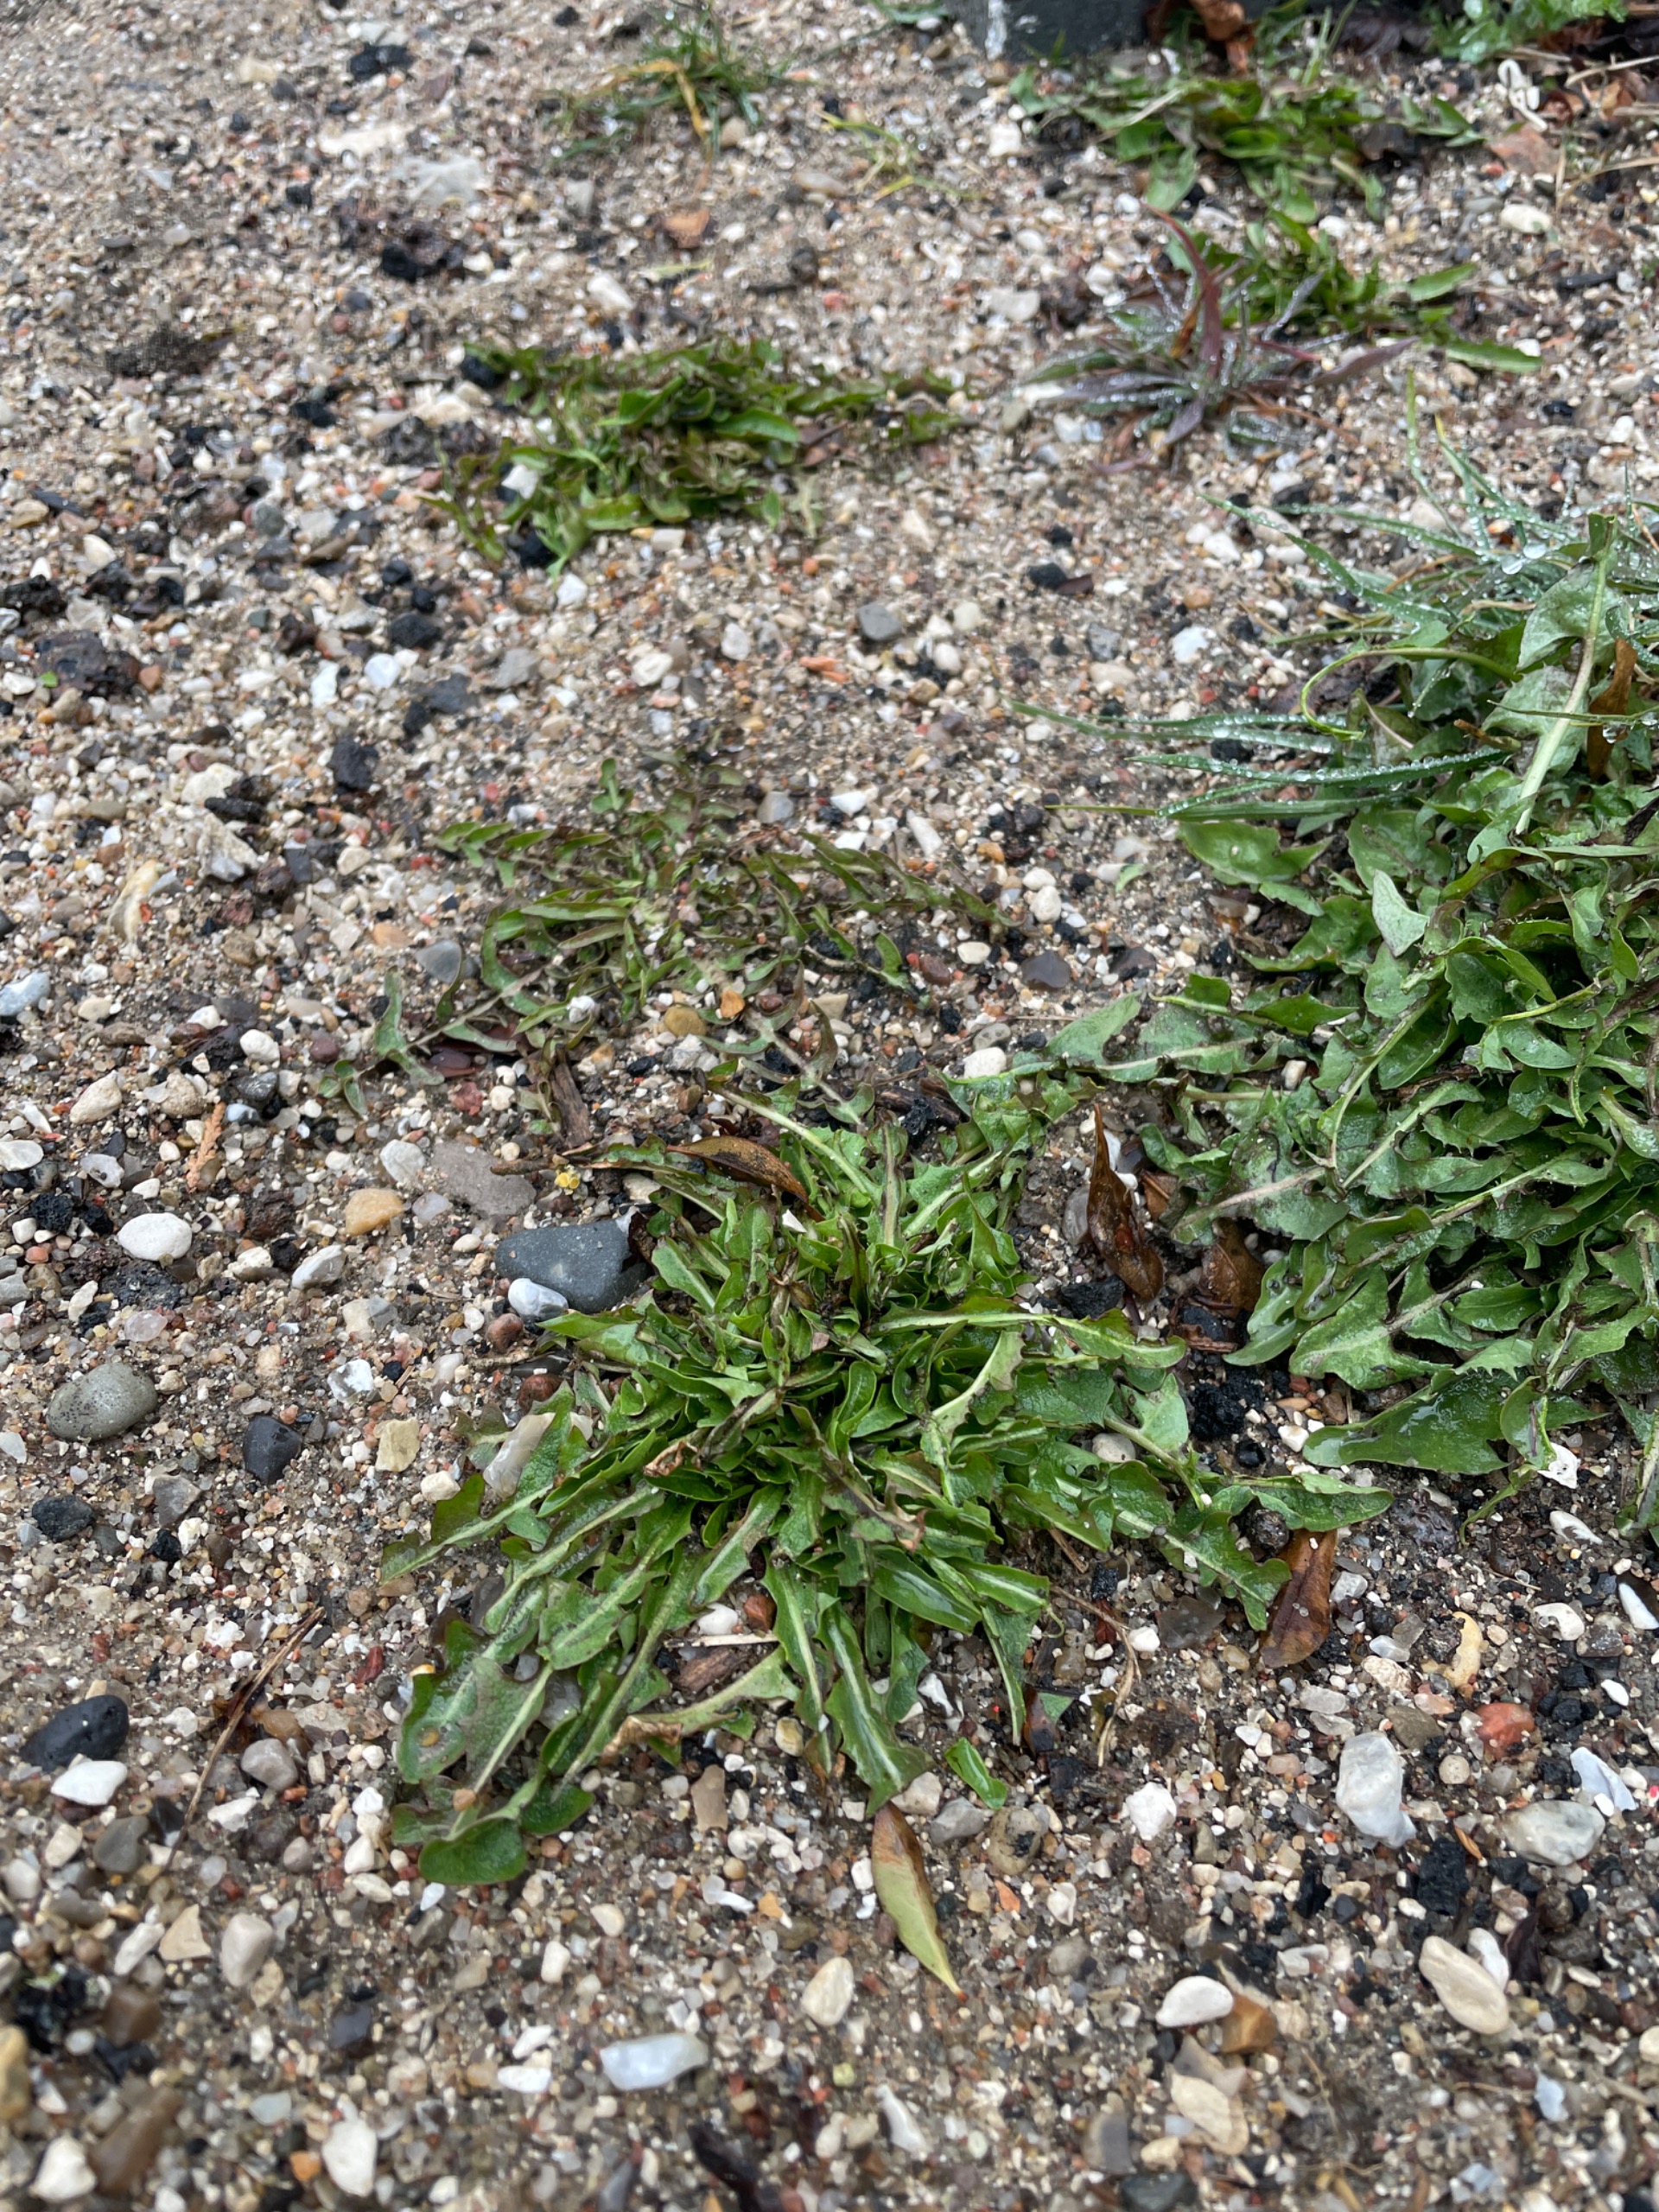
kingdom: Plantae
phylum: Tracheophyta
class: Magnoliopsida
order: Asterales
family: Asteraceae
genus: Taraxacum
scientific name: Taraxacum
